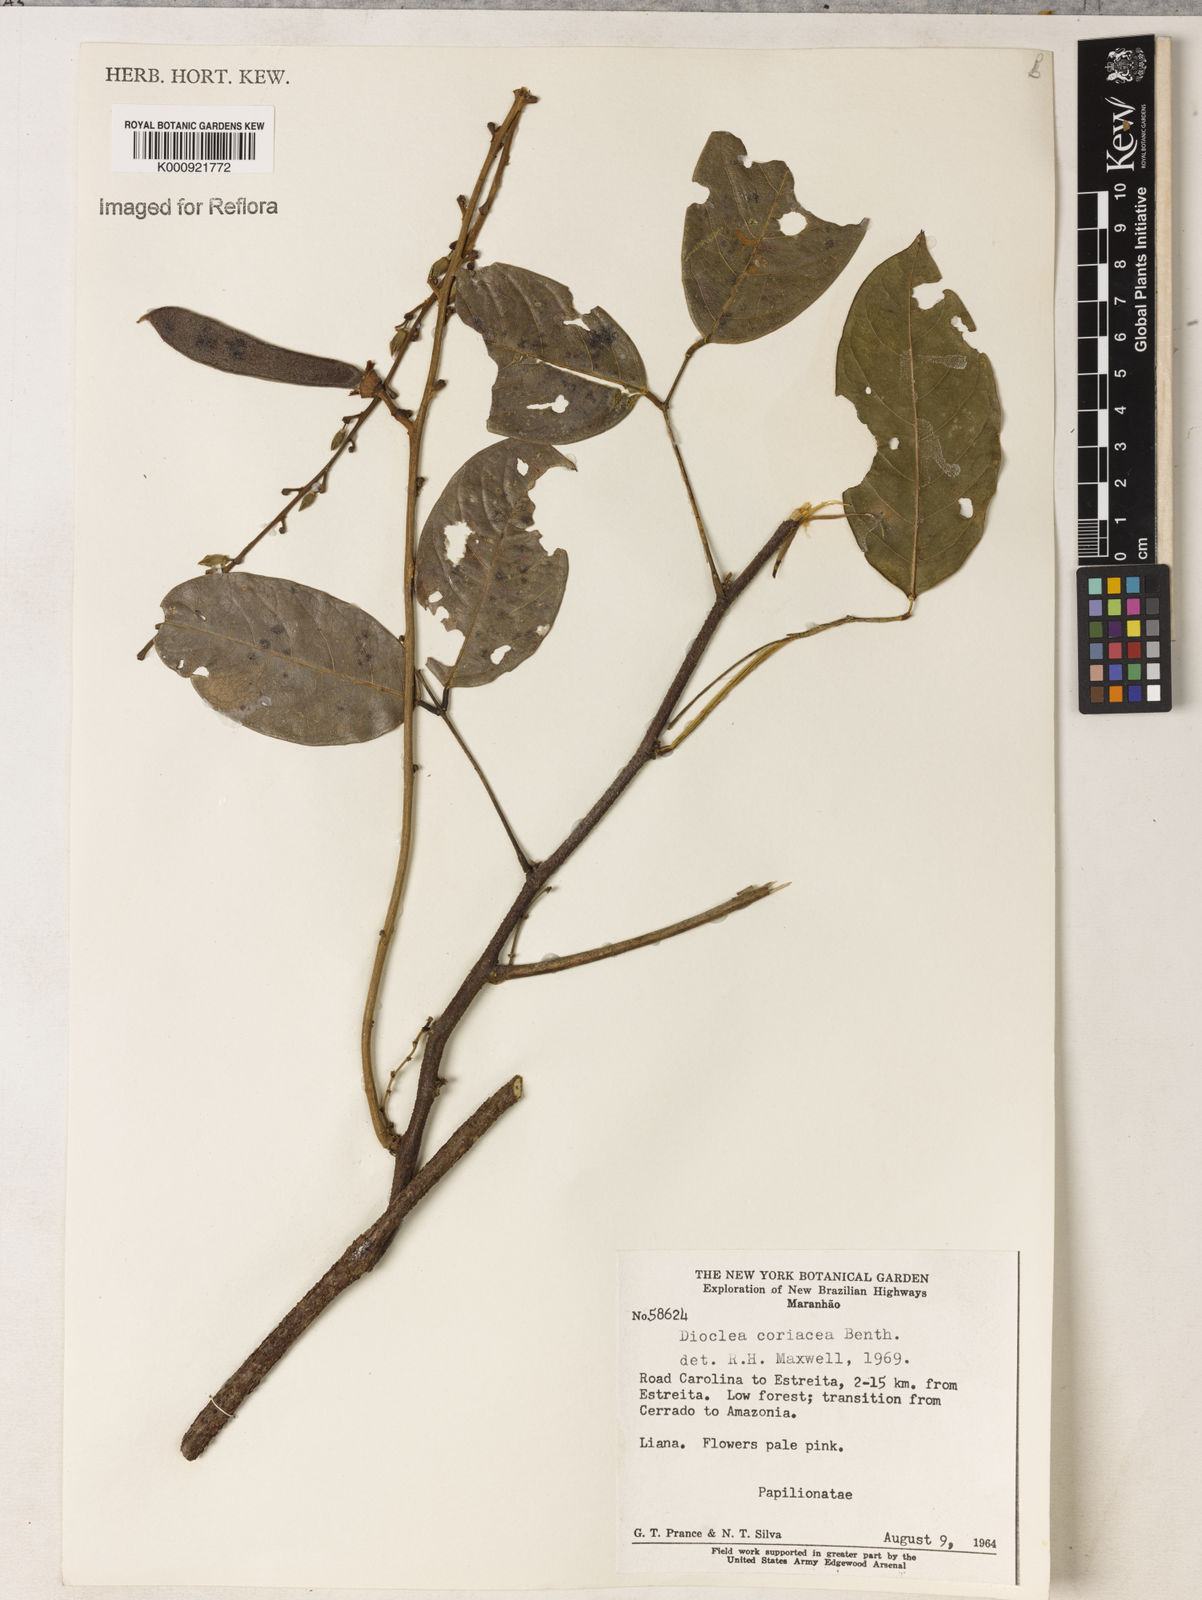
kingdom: Plantae
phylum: Tracheophyta
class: Magnoliopsida
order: Fabales
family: Fabaceae
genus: Macropsychanthus
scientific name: Macropsychanthus glaber
